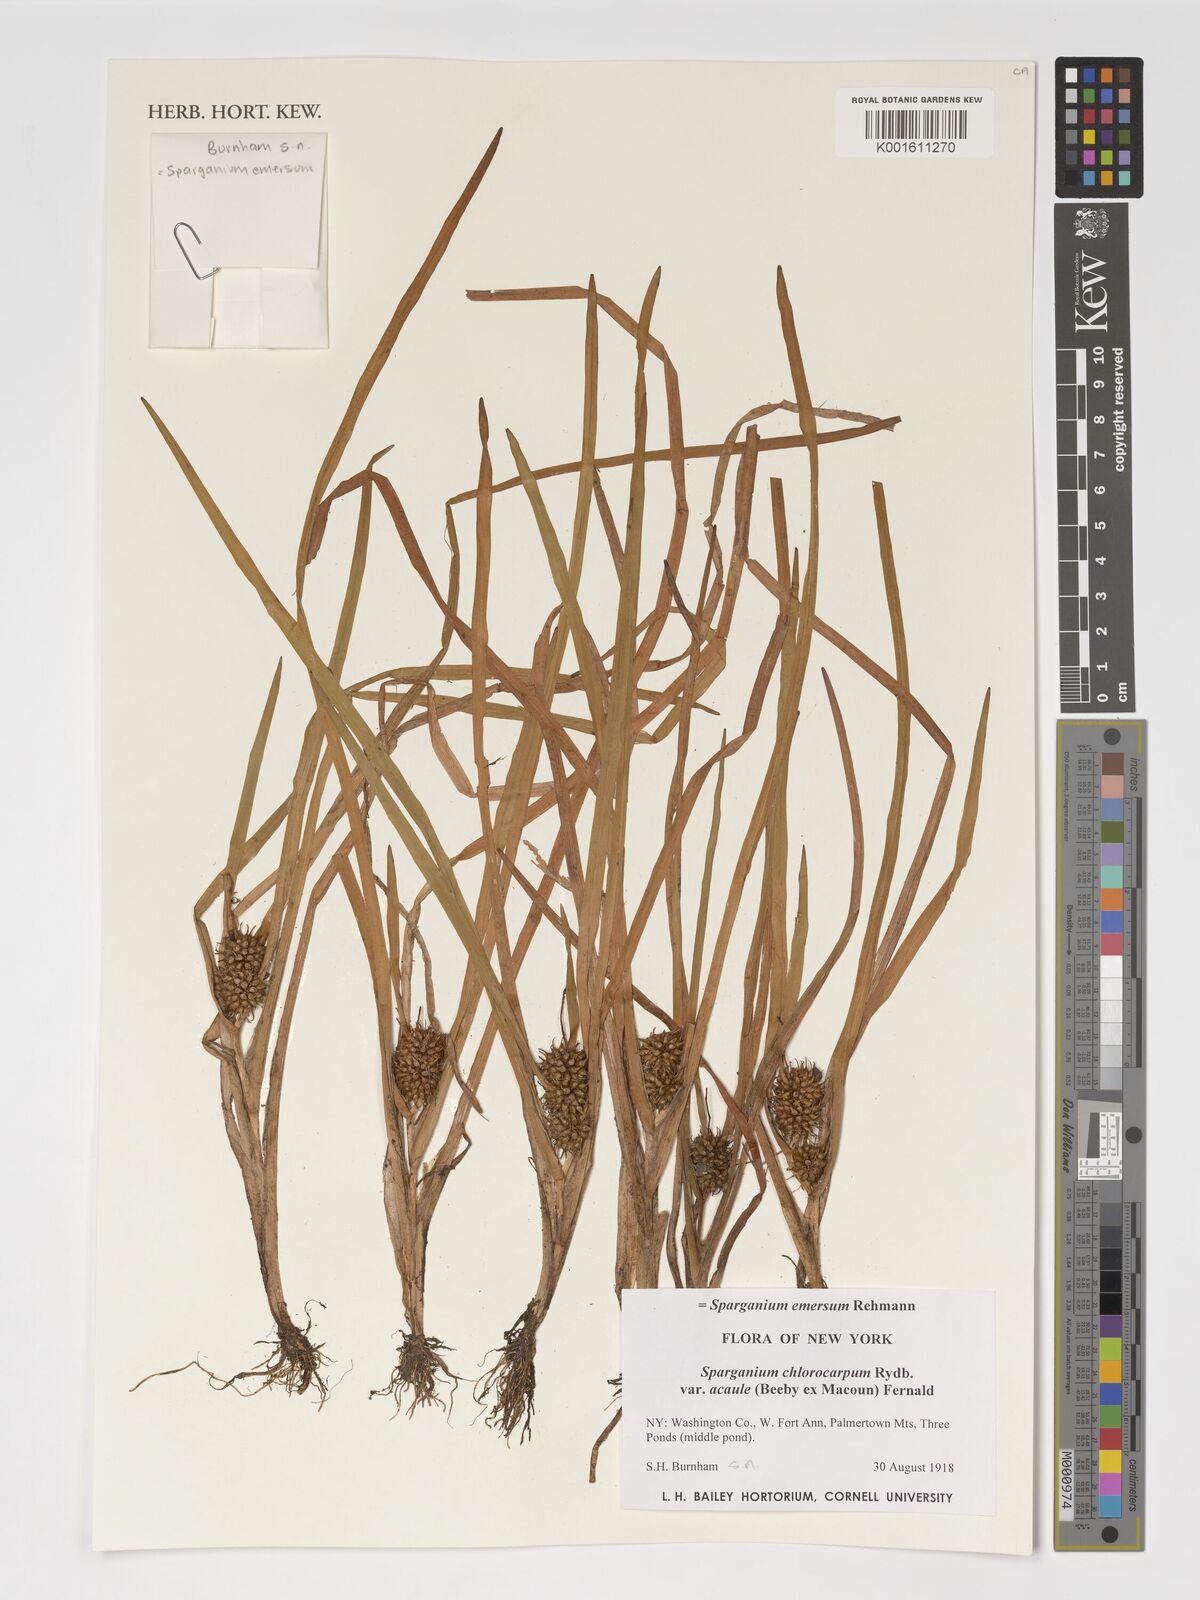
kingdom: Plantae
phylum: Tracheophyta
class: Liliopsida
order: Poales
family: Typhaceae
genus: Sparganium
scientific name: Sparganium emersum
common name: Unbranched bur-reed
